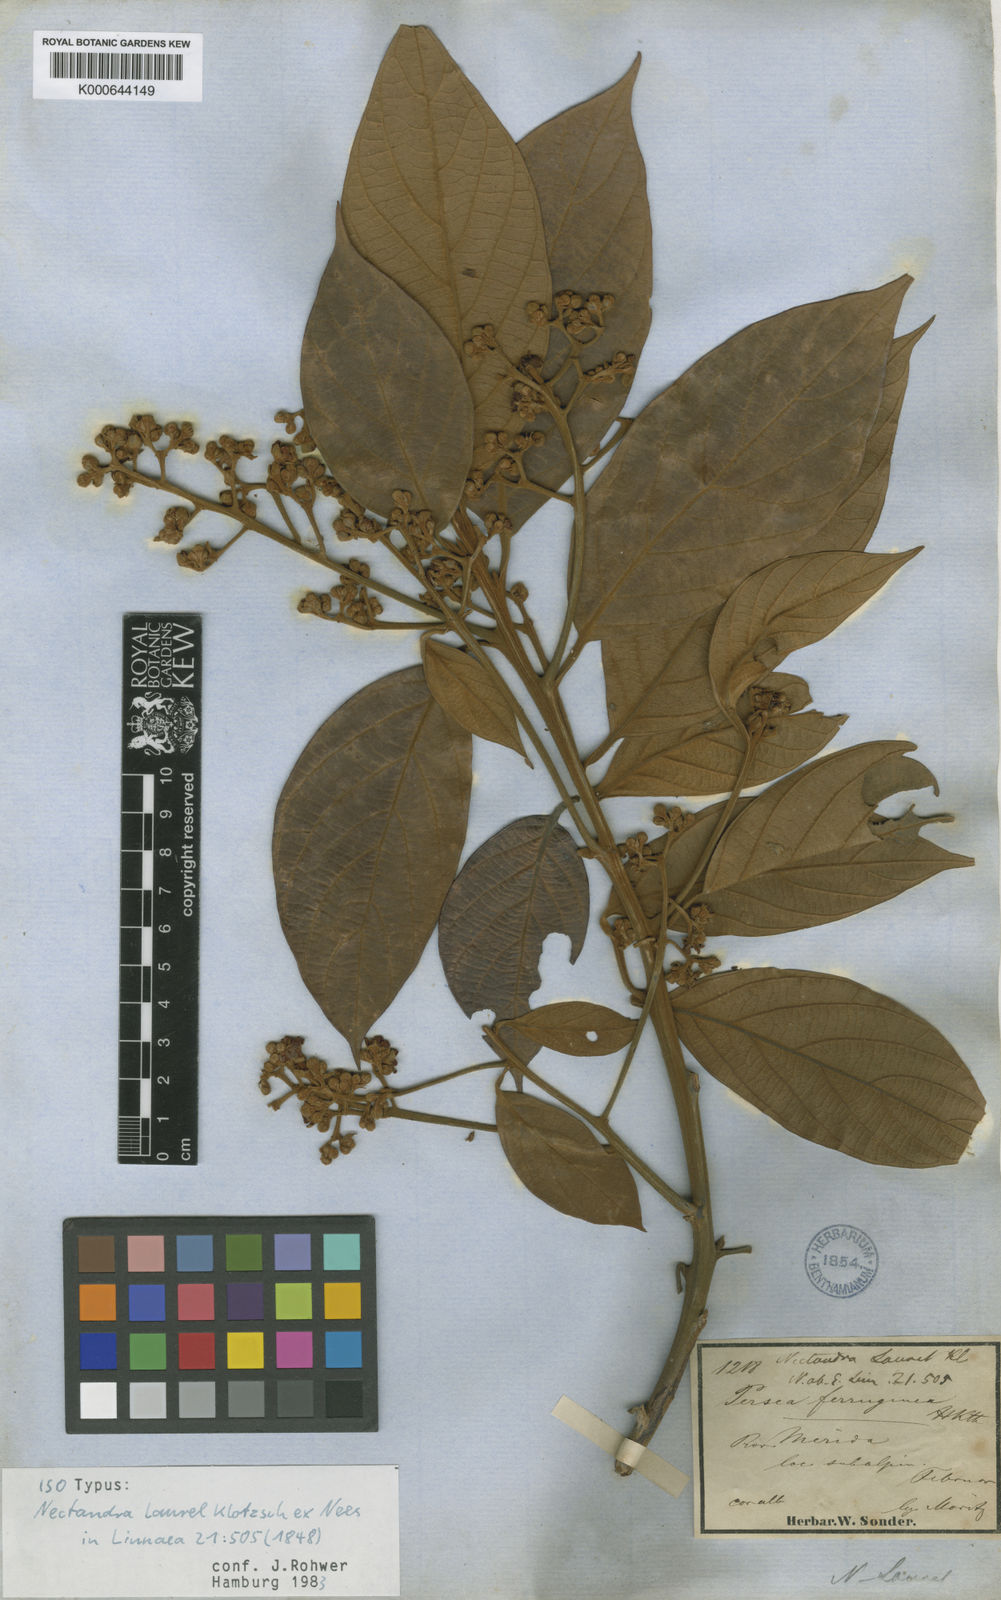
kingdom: Plantae
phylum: Tracheophyta
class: Magnoliopsida
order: Laurales
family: Lauraceae
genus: Nectandra
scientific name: Nectandra laurel
